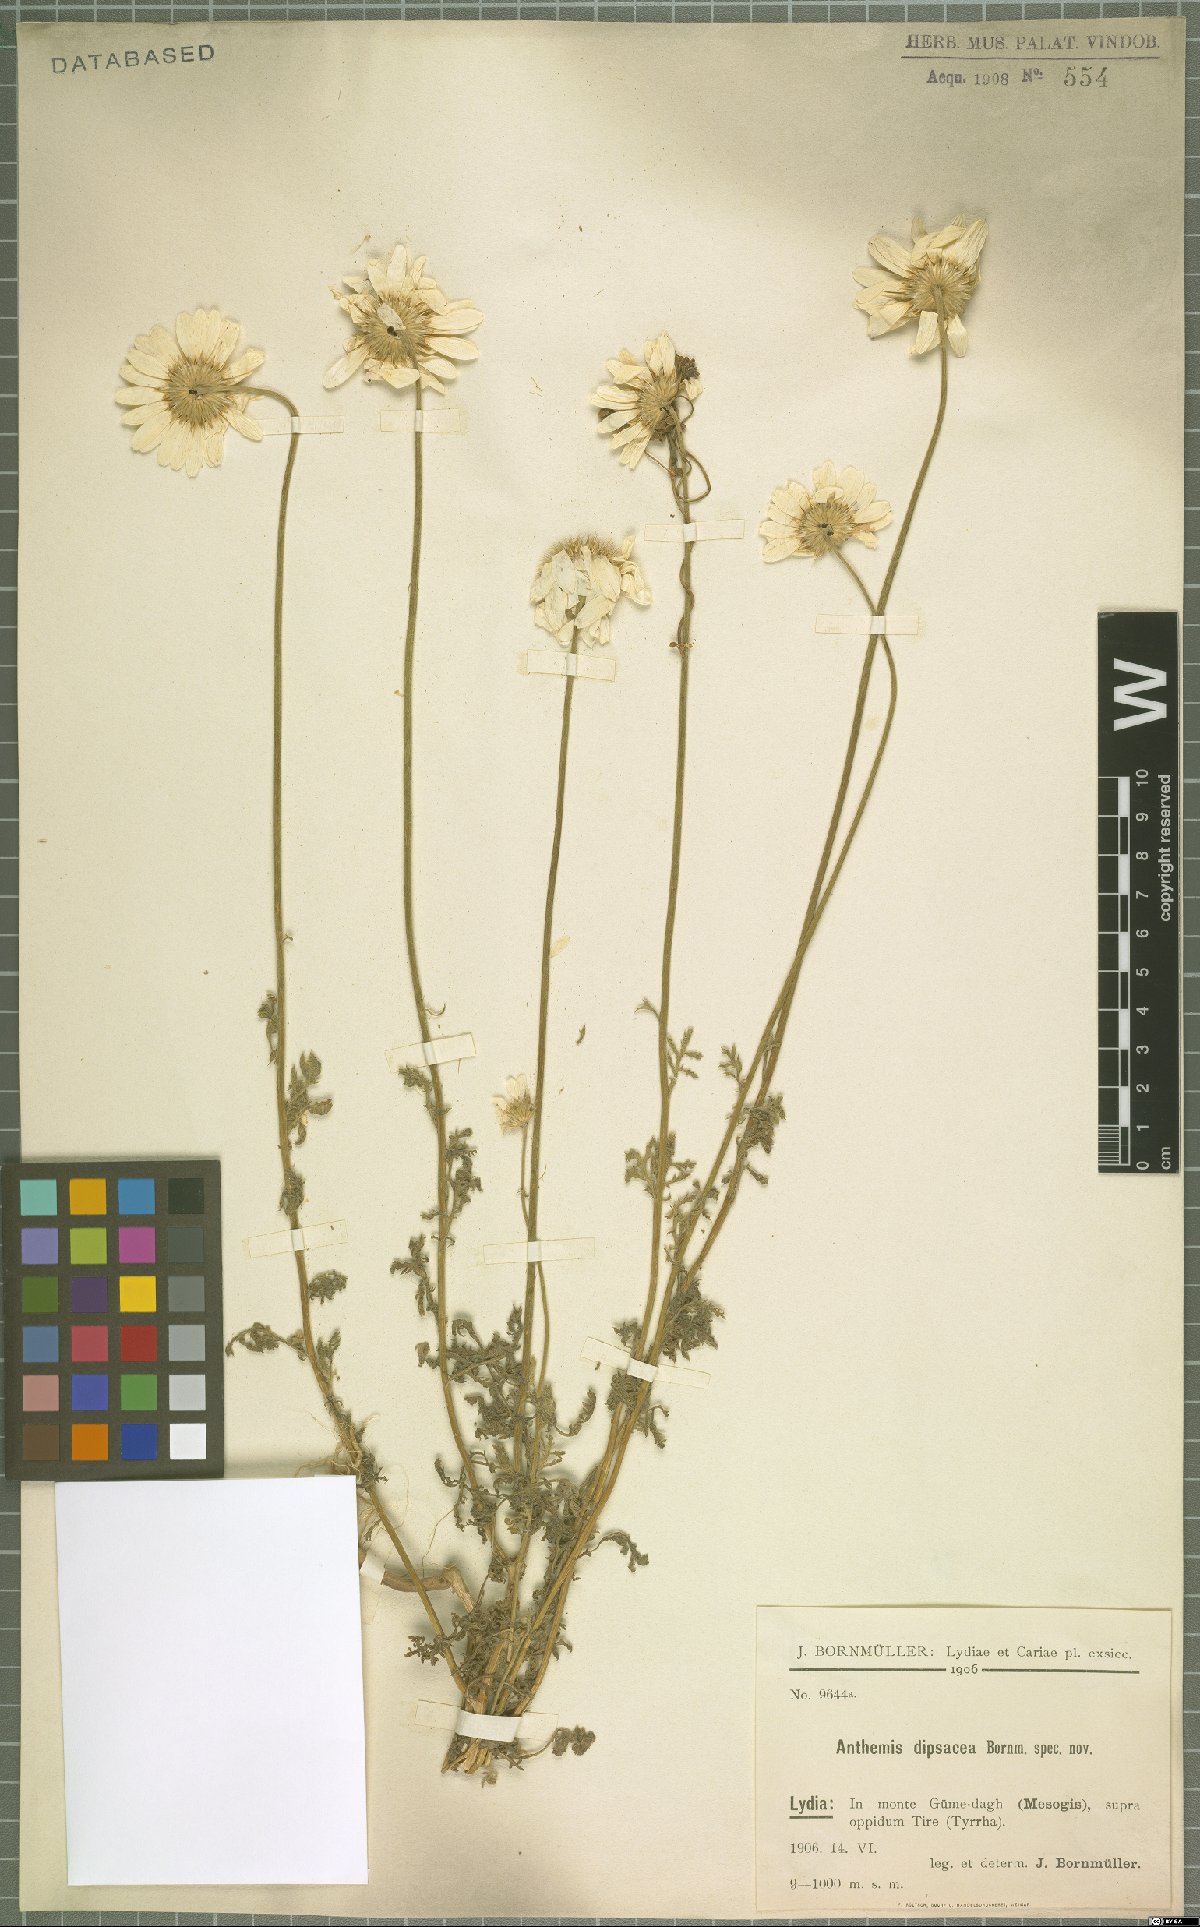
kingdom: Plantae
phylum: Tracheophyta
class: Magnoliopsida
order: Asterales
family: Asteraceae
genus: Cota
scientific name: Cota dipsacea
